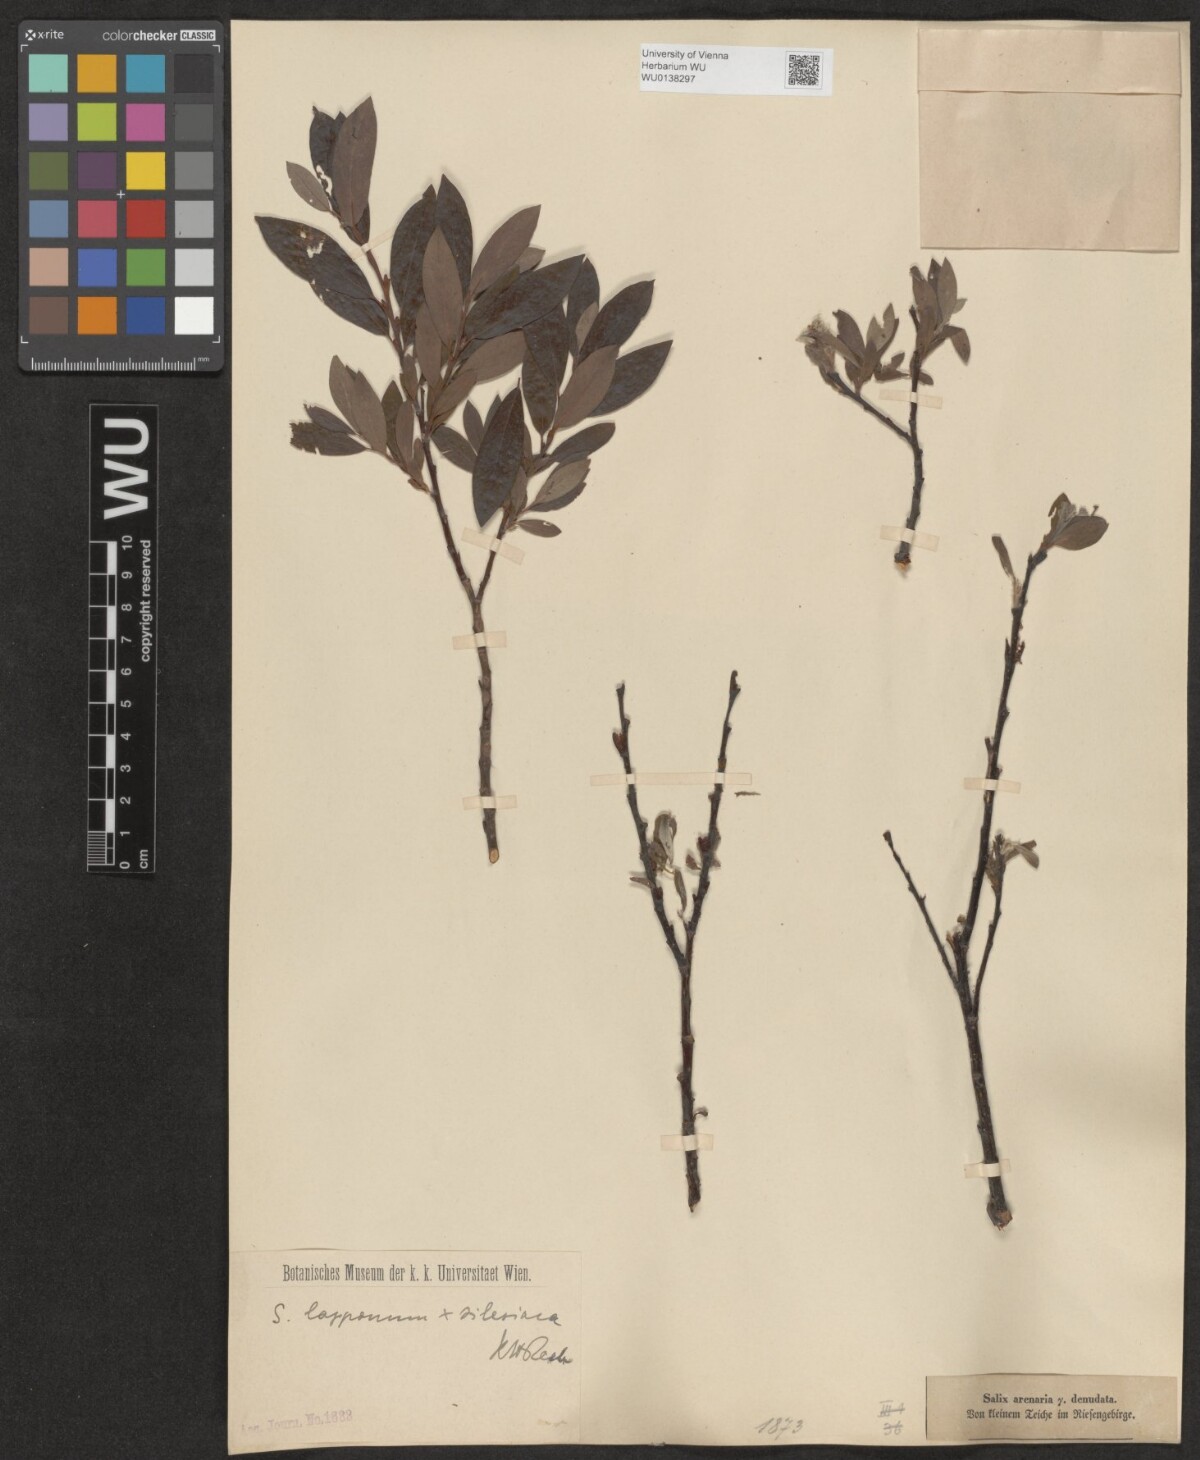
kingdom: Plantae
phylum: Tracheophyta
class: Magnoliopsida
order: Malpighiales
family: Salicaceae
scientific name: Salicaceae
